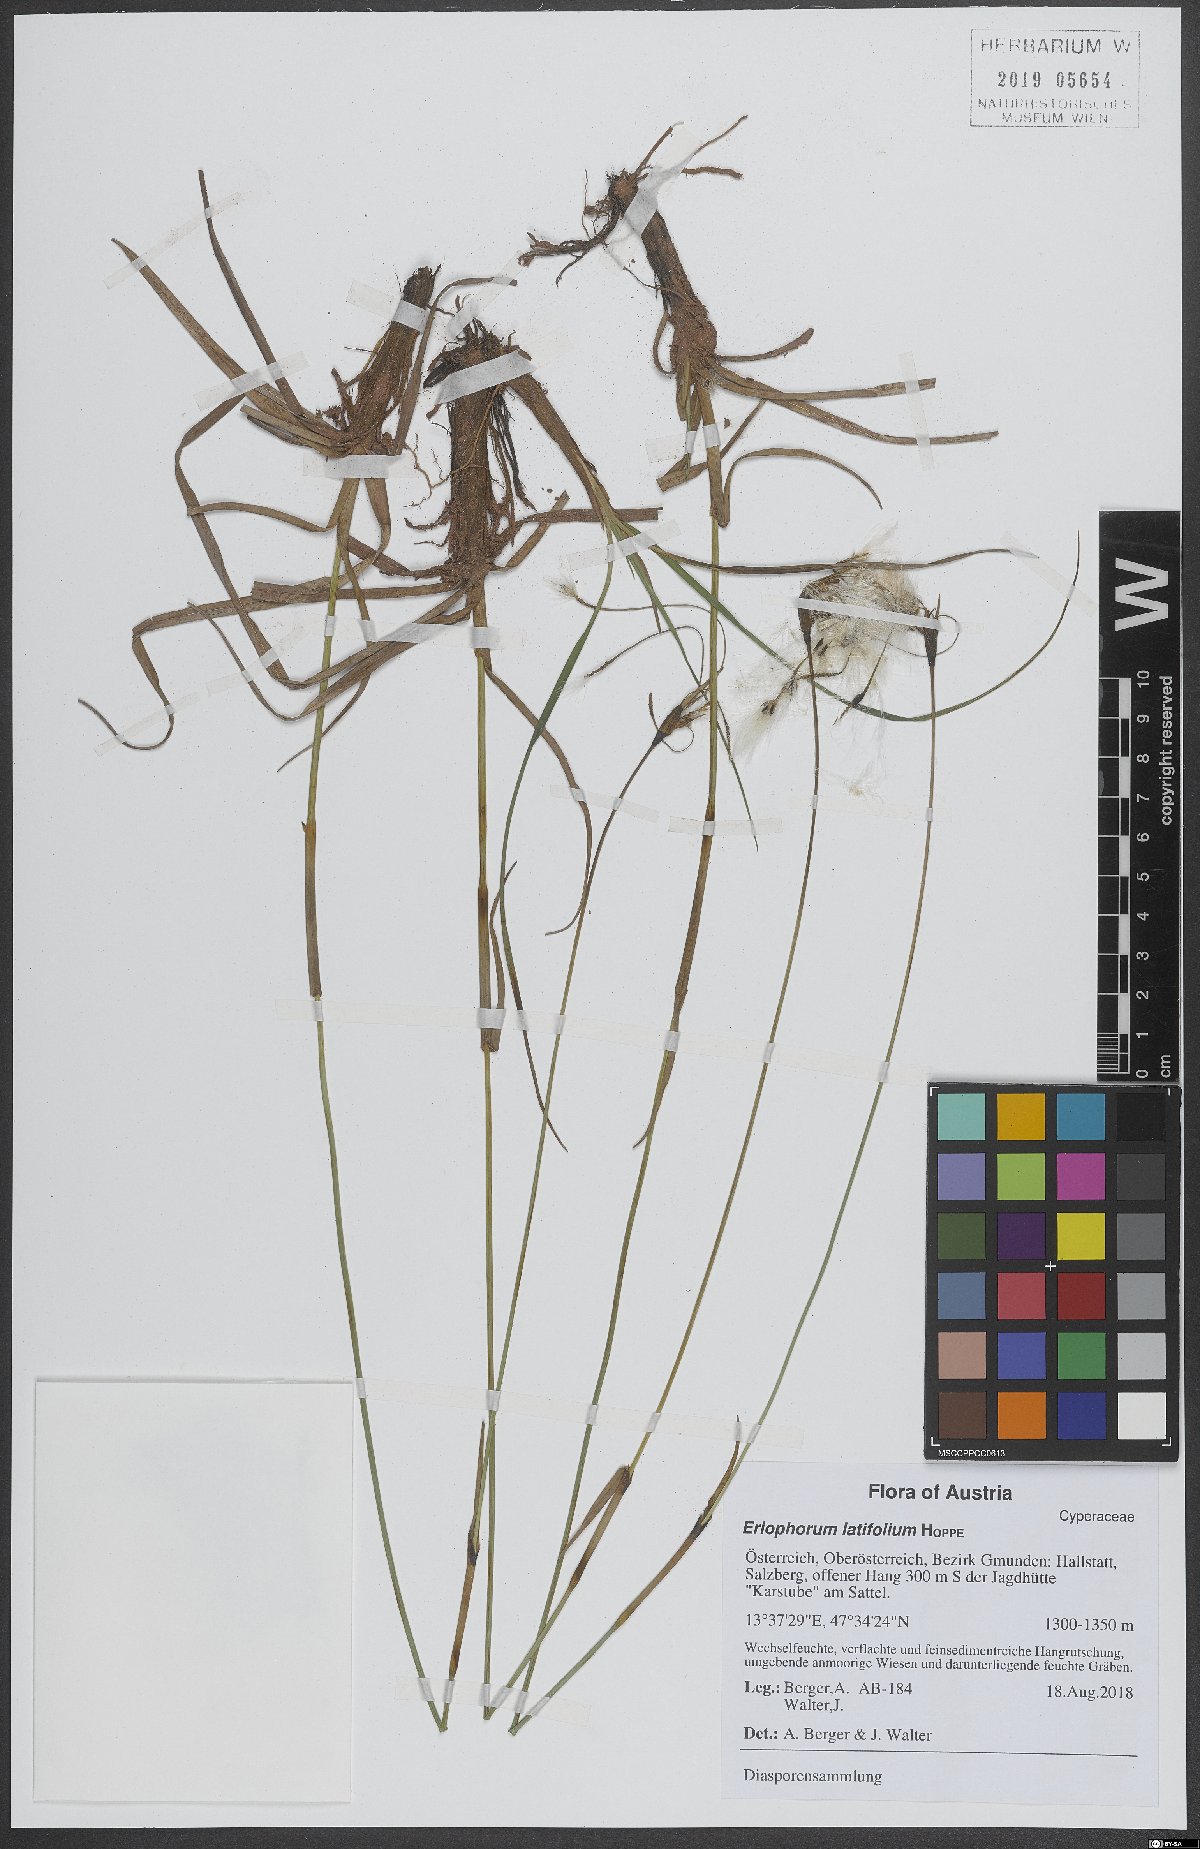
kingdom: Plantae
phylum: Tracheophyta
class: Liliopsida
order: Poales
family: Cyperaceae
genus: Eriophorum
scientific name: Eriophorum latifolium
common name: Broad-leaved cottongrass
